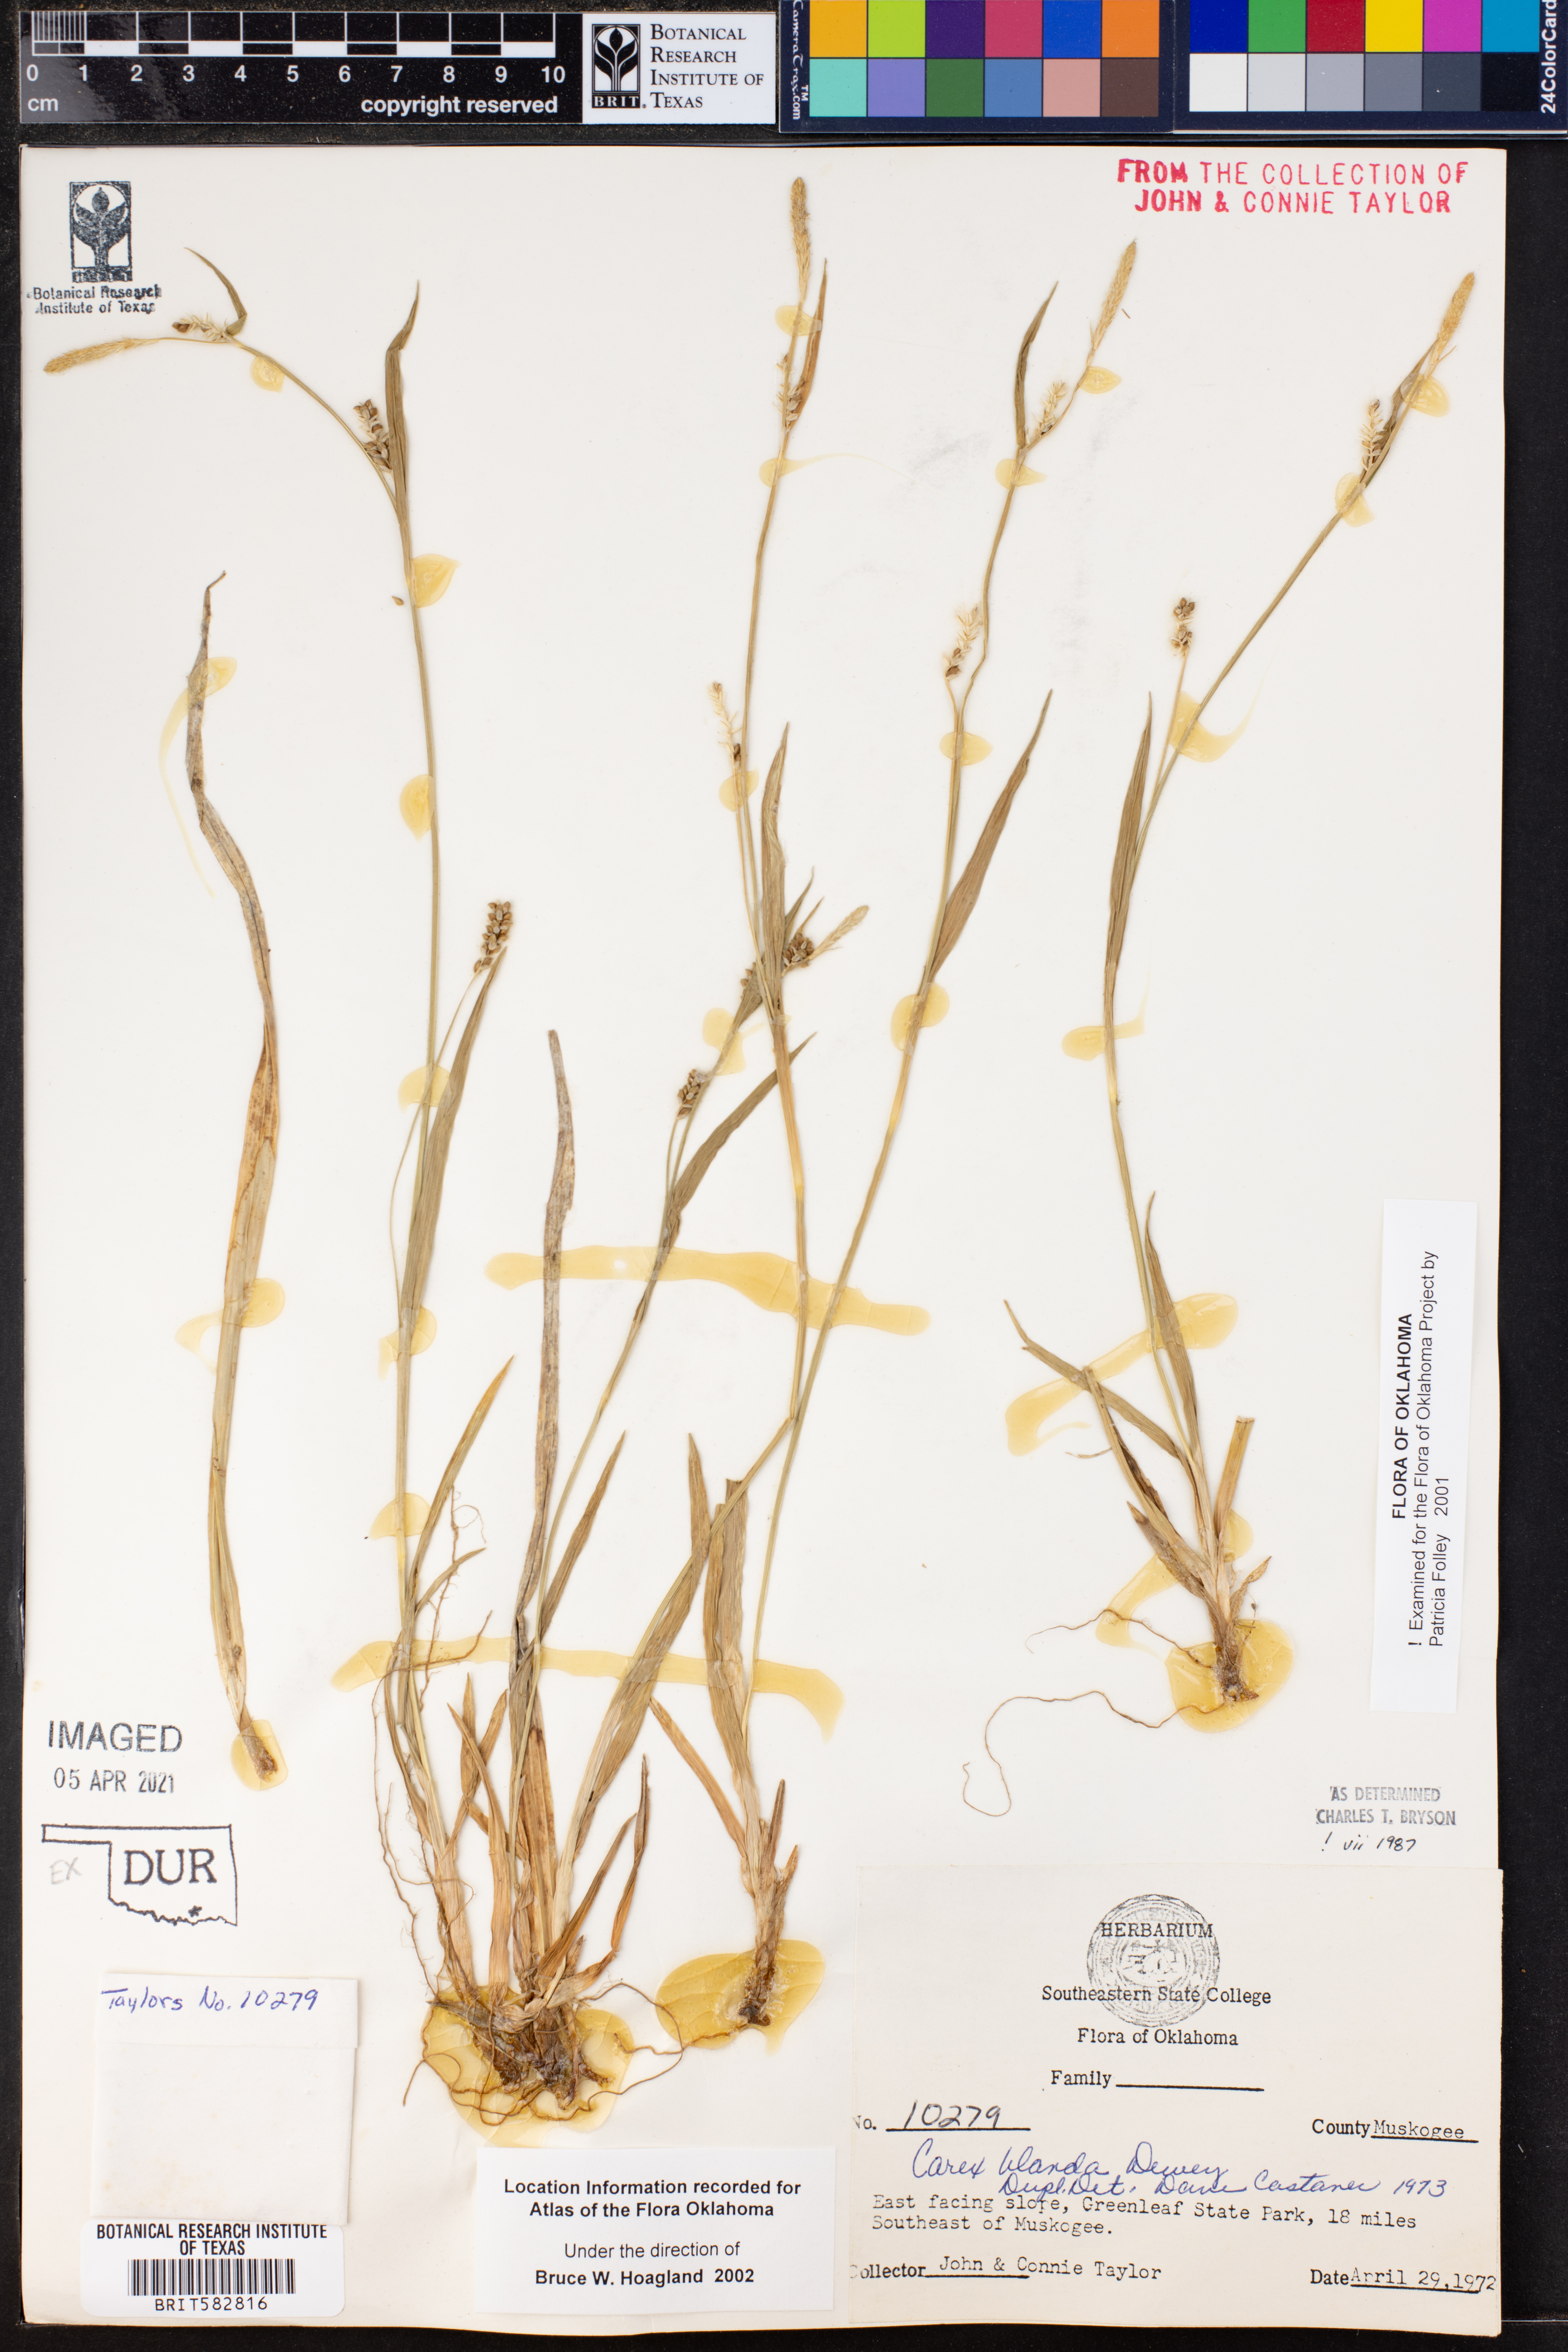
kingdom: Plantae
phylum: Tracheophyta
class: Liliopsida
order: Poales
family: Cyperaceae
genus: Carex
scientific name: Carex blanda
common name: Bland sedge
